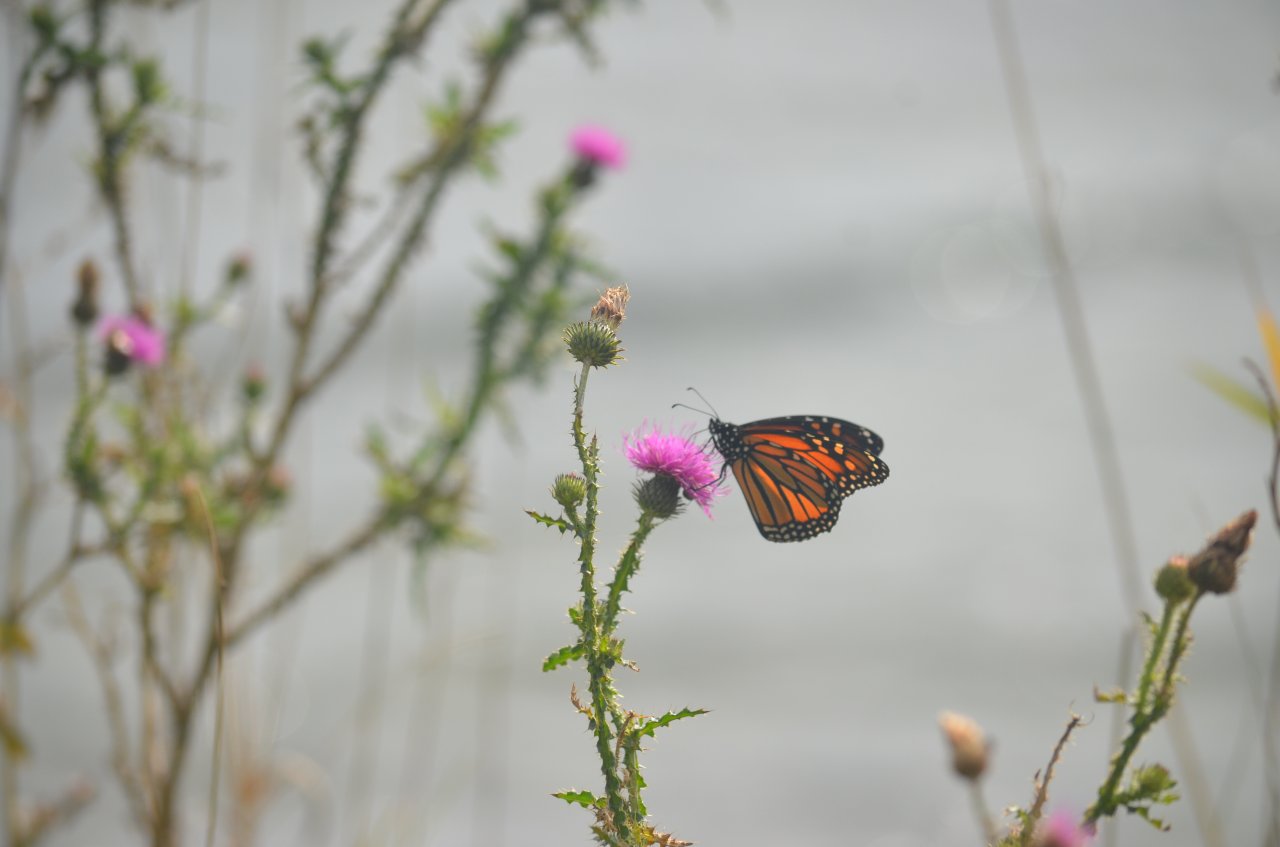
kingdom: Animalia
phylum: Arthropoda
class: Insecta
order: Lepidoptera
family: Nymphalidae
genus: Danaus
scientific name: Danaus plexippus
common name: Monarch
